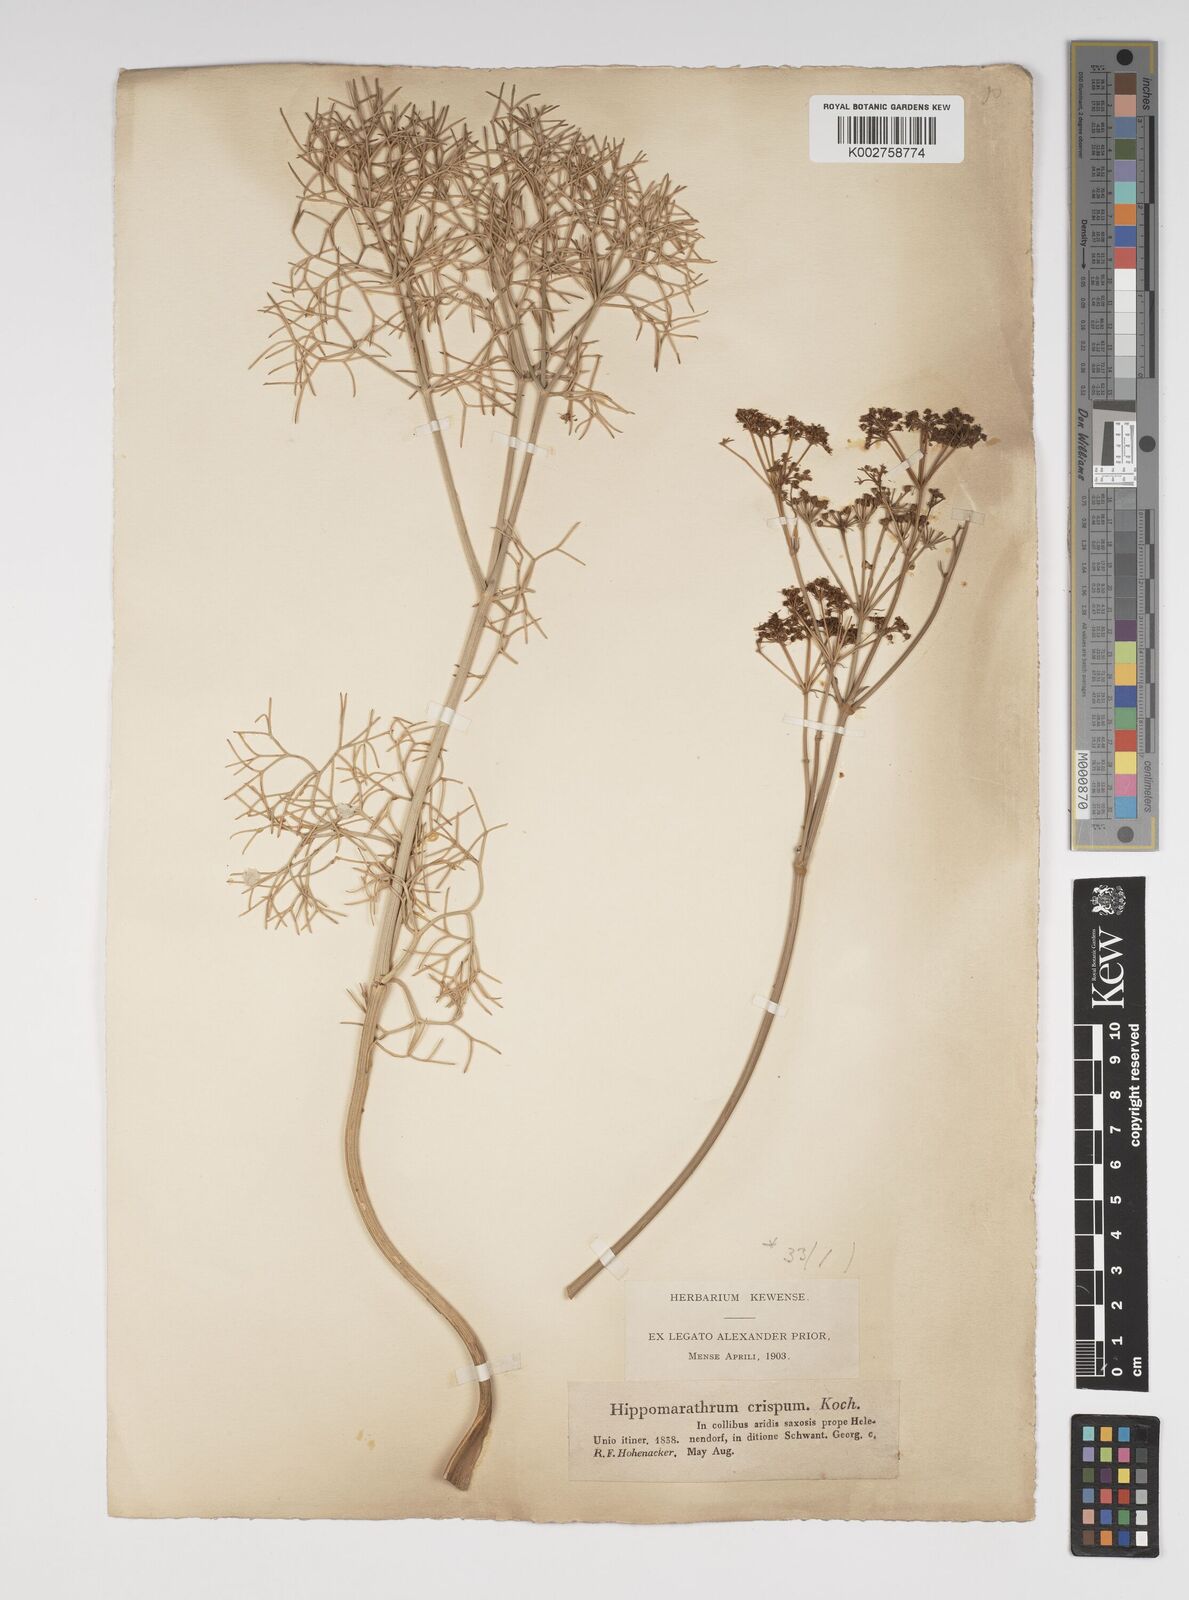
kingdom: Plantae
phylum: Tracheophyta
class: Magnoliopsida
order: Apiales
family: Apiaceae
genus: Bilacunaria
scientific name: Bilacunaria microcarpa
